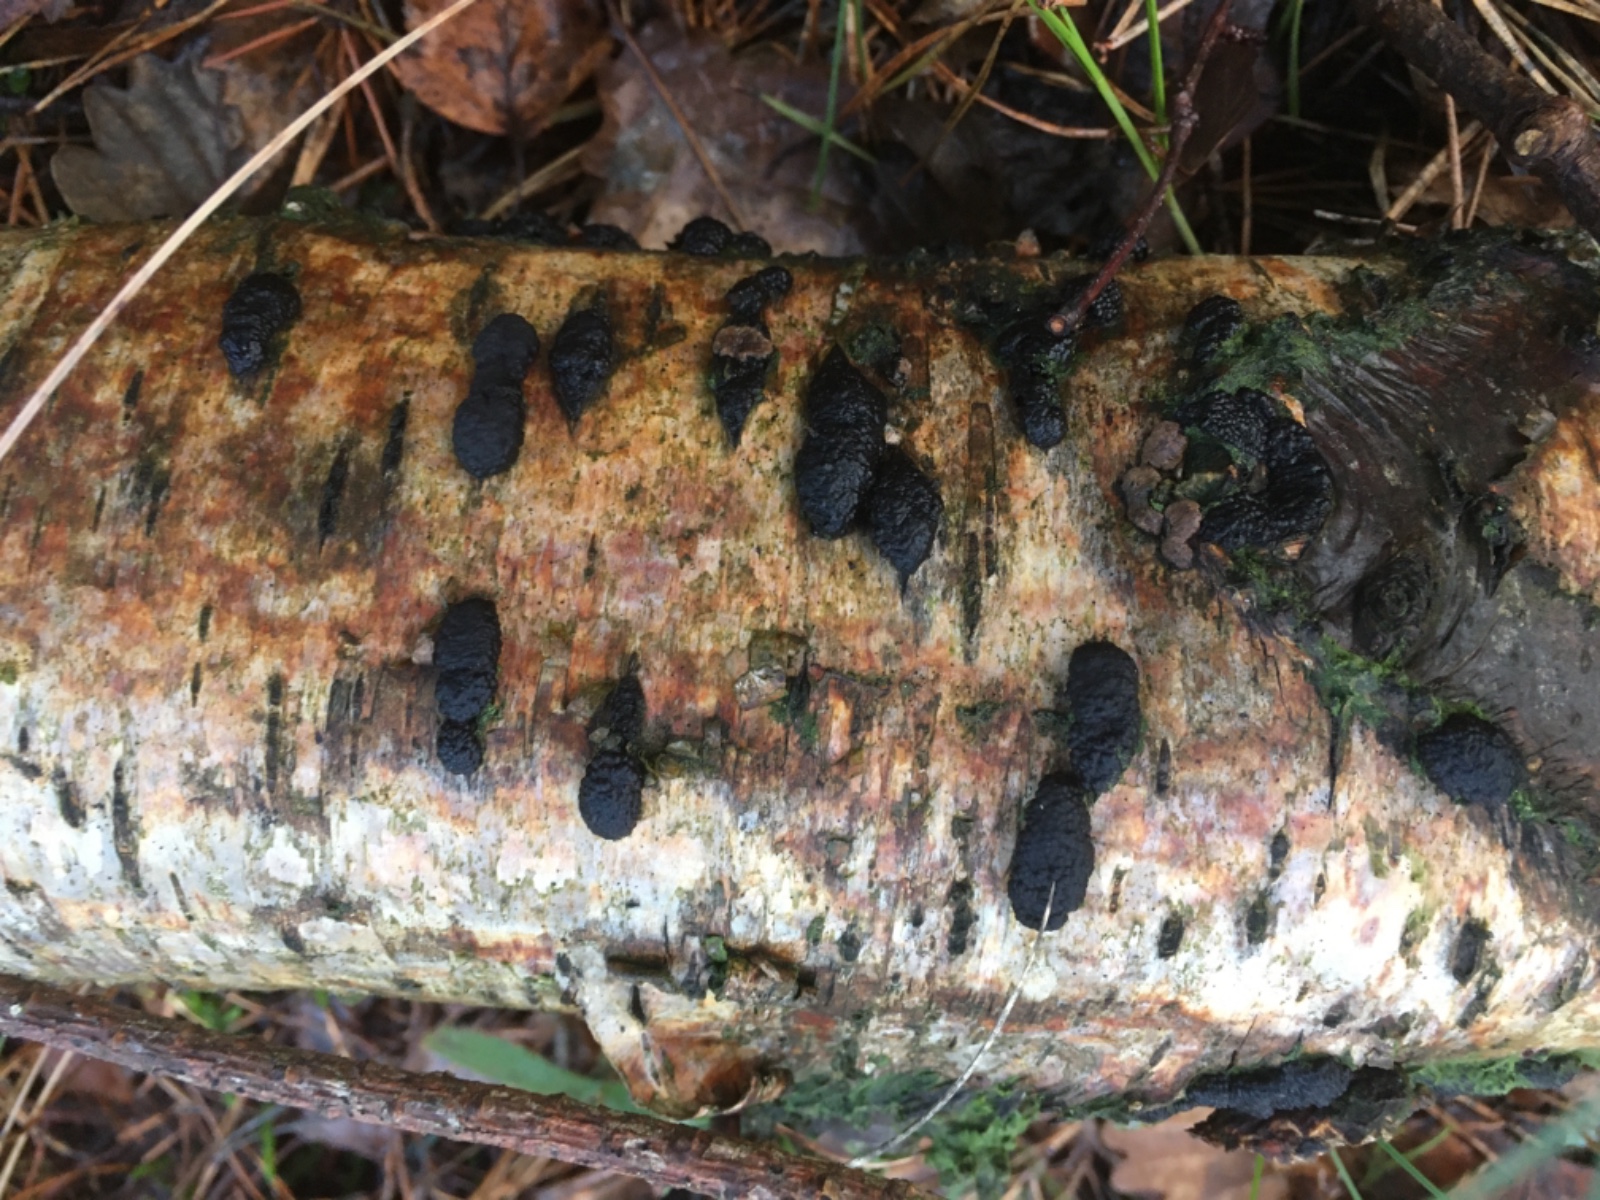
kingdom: Fungi
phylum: Ascomycota
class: Sordariomycetes
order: Xylariales
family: Hypoxylaceae
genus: Jackrogersella
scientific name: Jackrogersella multiformis
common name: foranderlig kulbær
